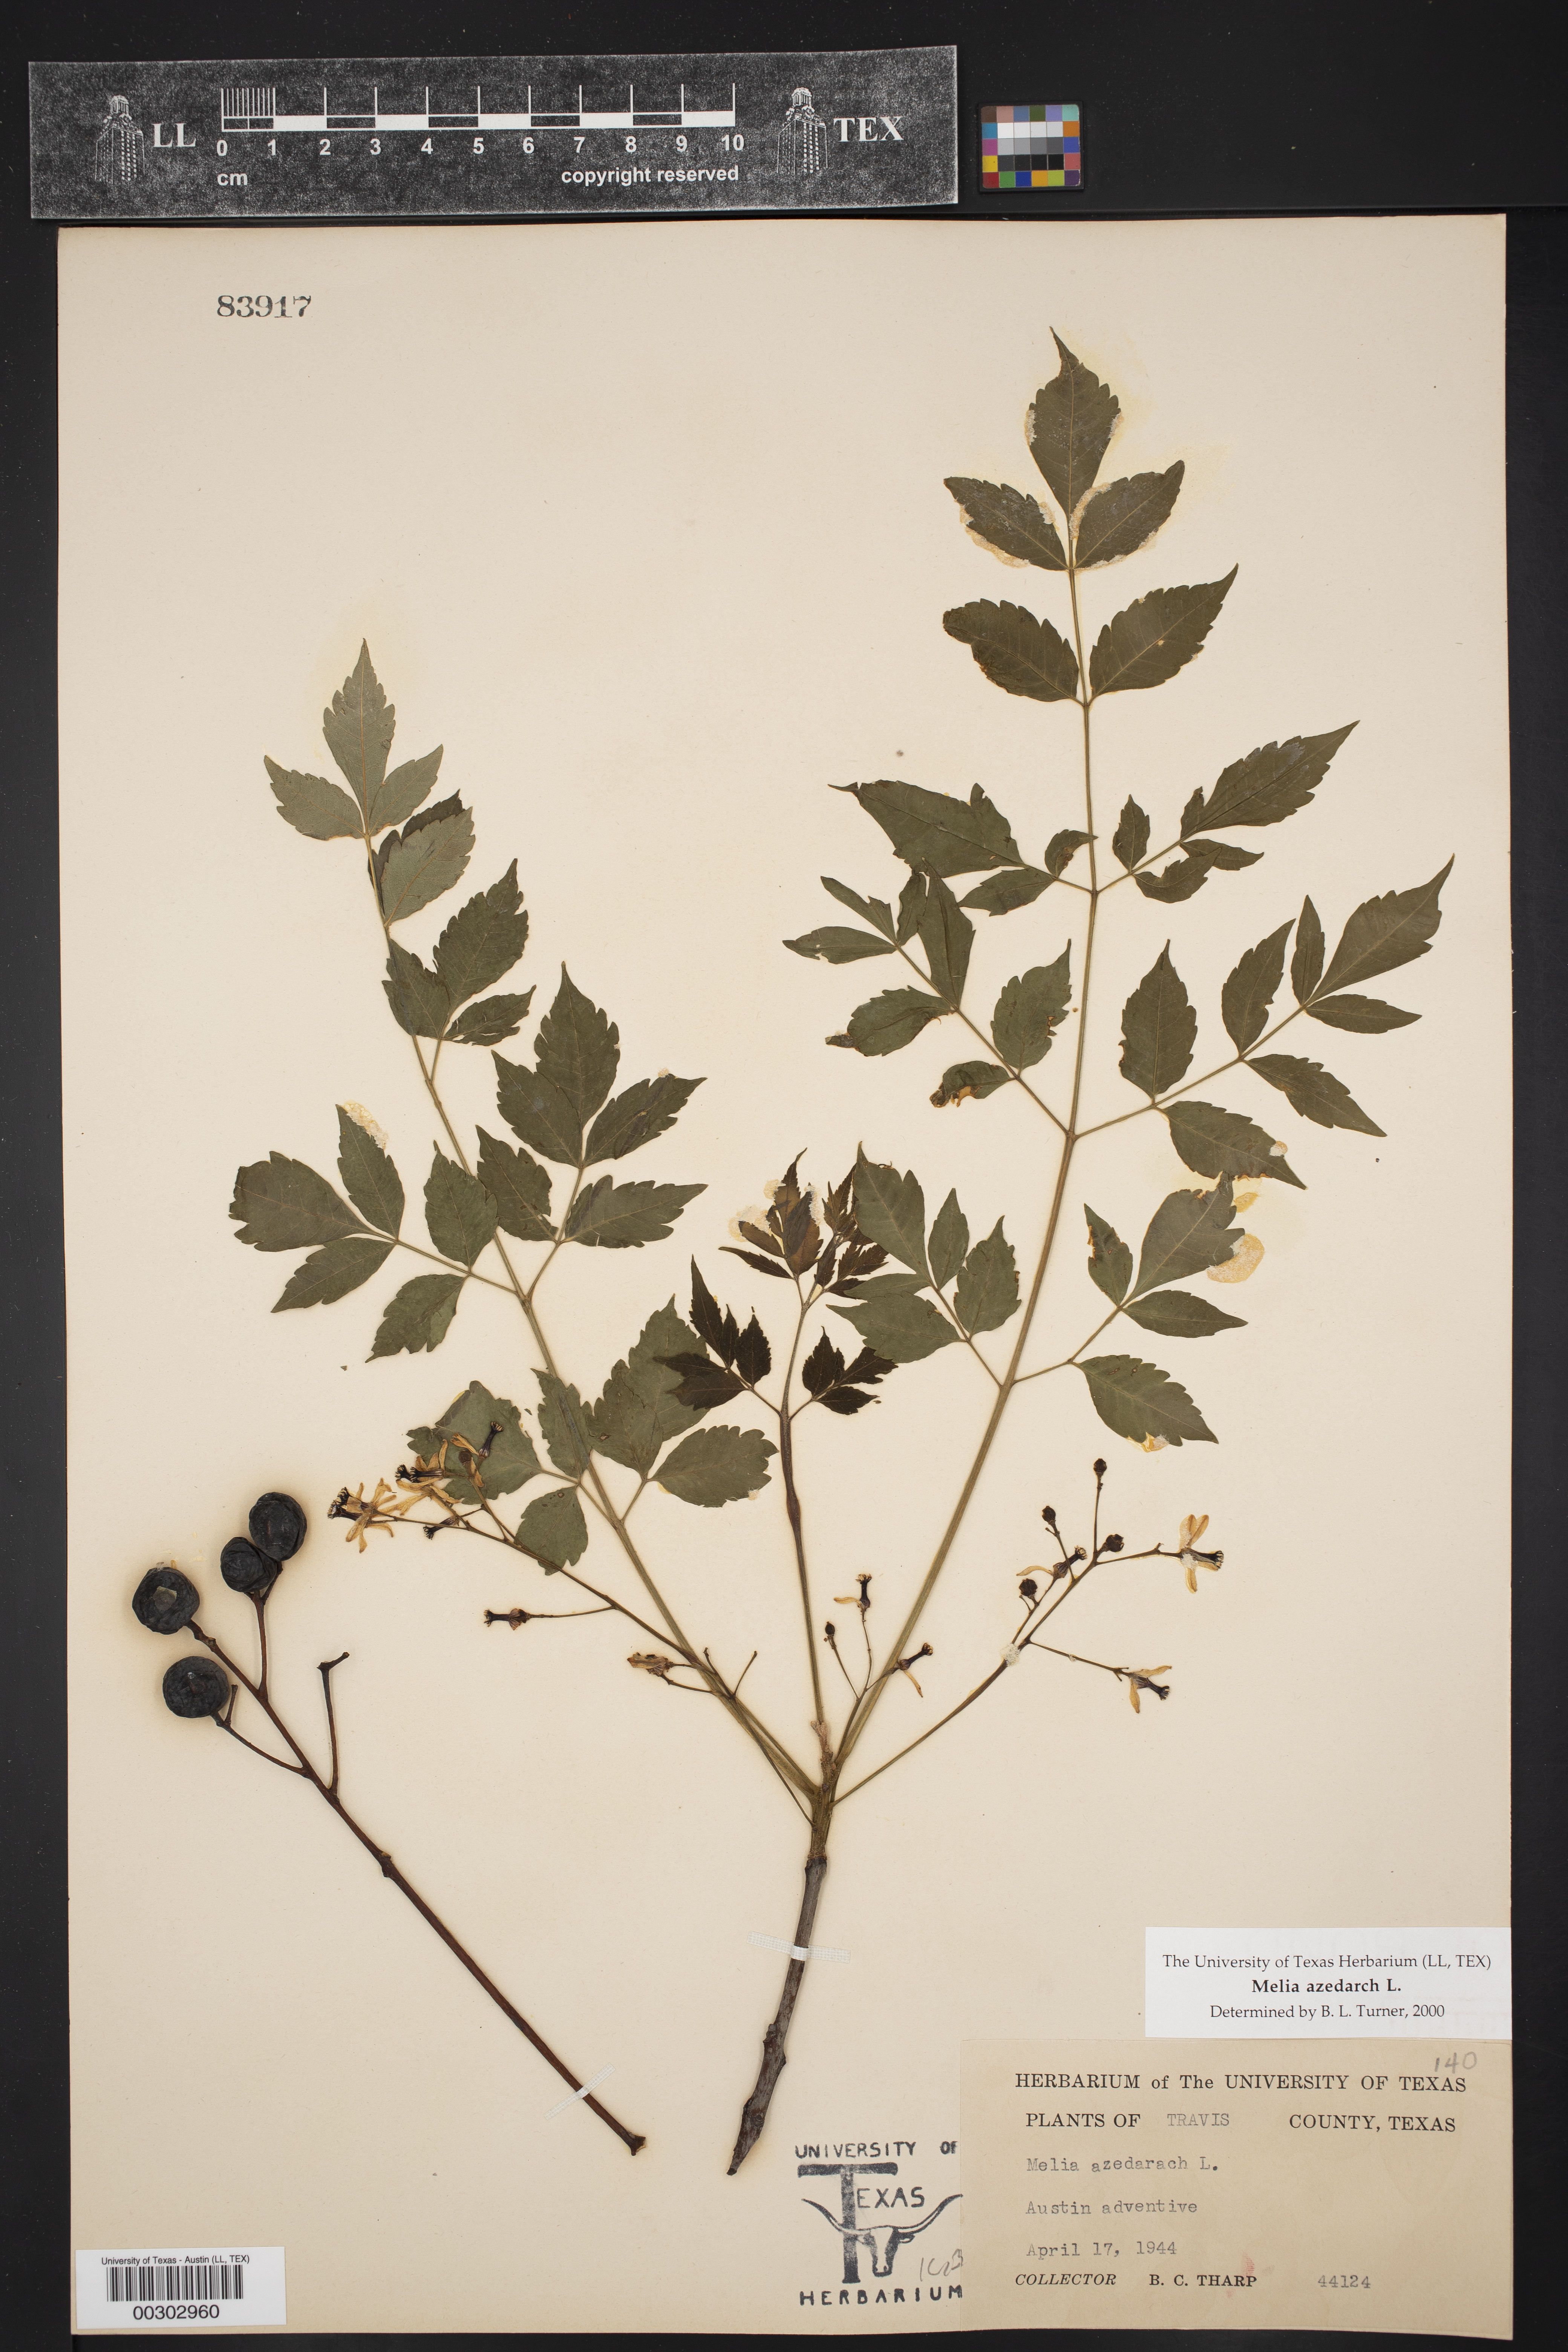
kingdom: Plantae
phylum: Tracheophyta
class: Magnoliopsida
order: Sapindales
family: Meliaceae
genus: Melia
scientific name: Melia azedarach
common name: Chinaberrytree
